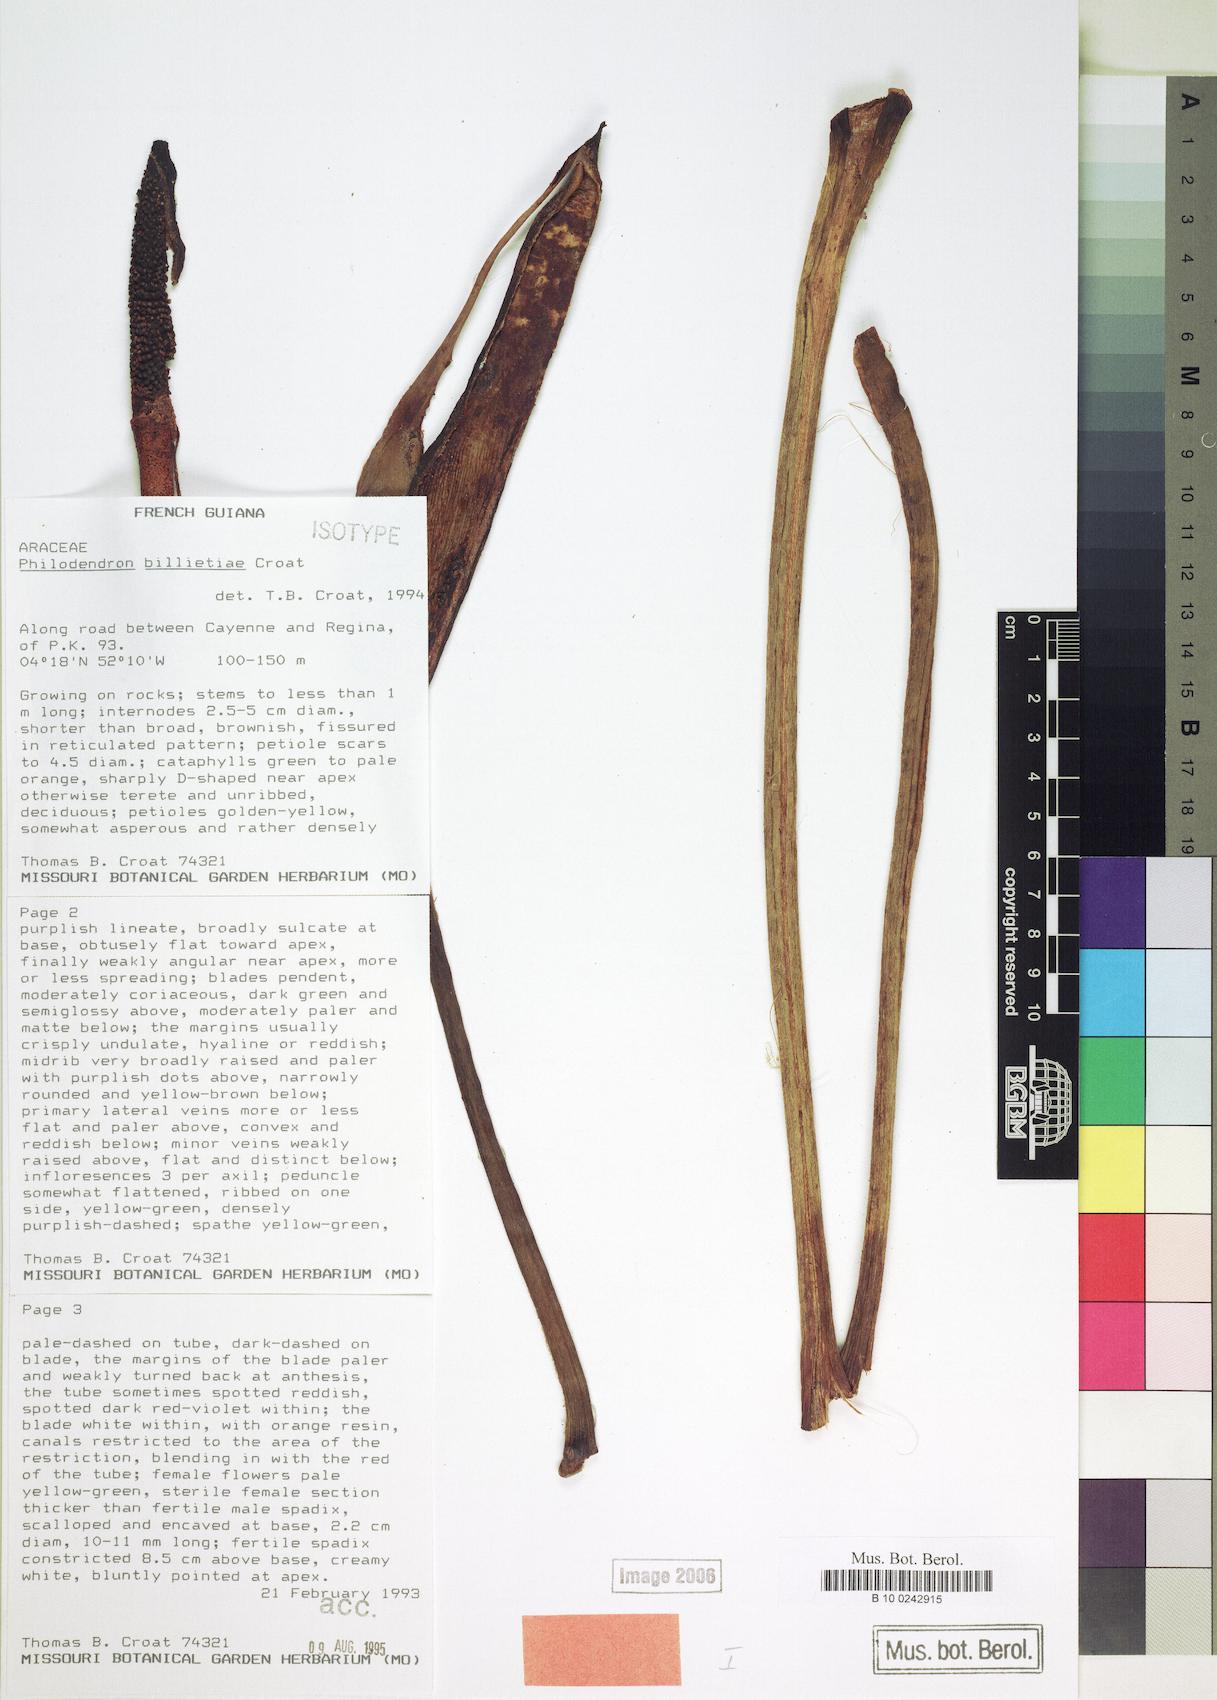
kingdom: Plantae
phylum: Tracheophyta
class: Liliopsida
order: Alismatales
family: Araceae
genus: Philodendron
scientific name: Philodendron billietiae
